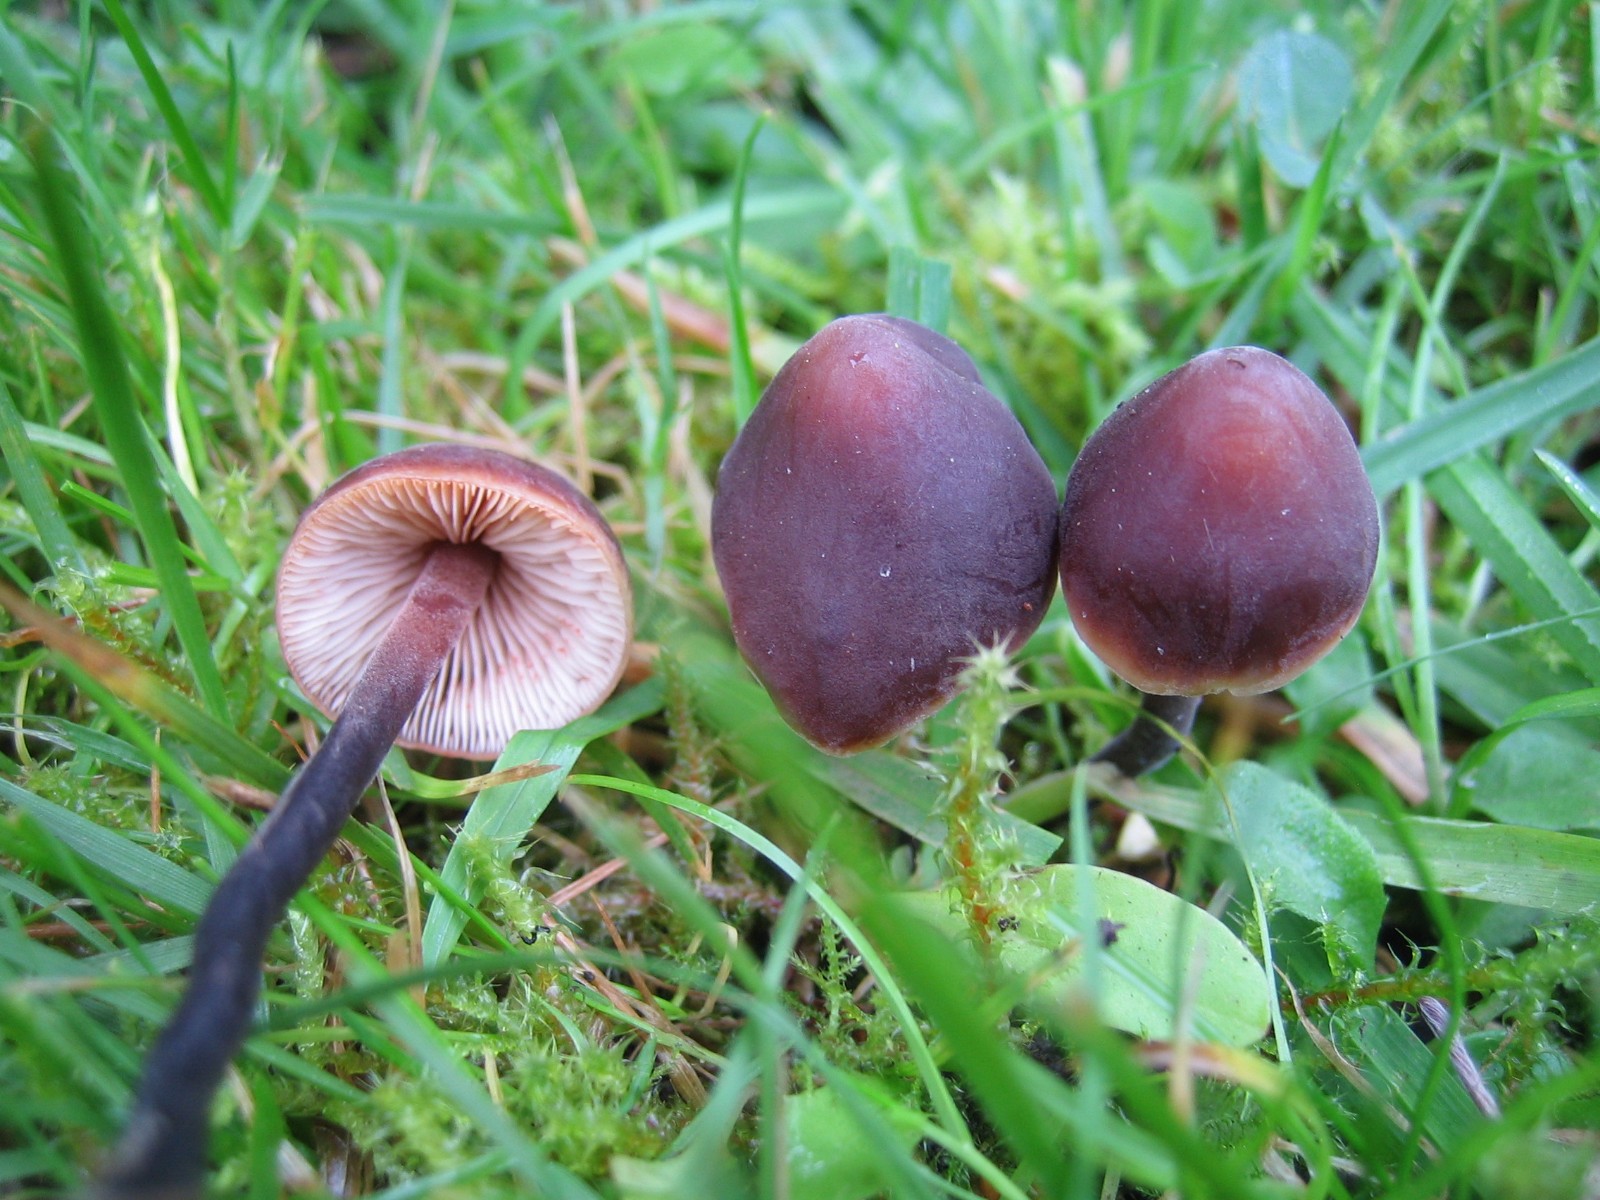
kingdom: Fungi
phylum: Basidiomycota
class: Agaricomycetes
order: Agaricales
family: Macrocystidiaceae
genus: Macrocystidia
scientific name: Macrocystidia cucumis
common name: agurkehat
